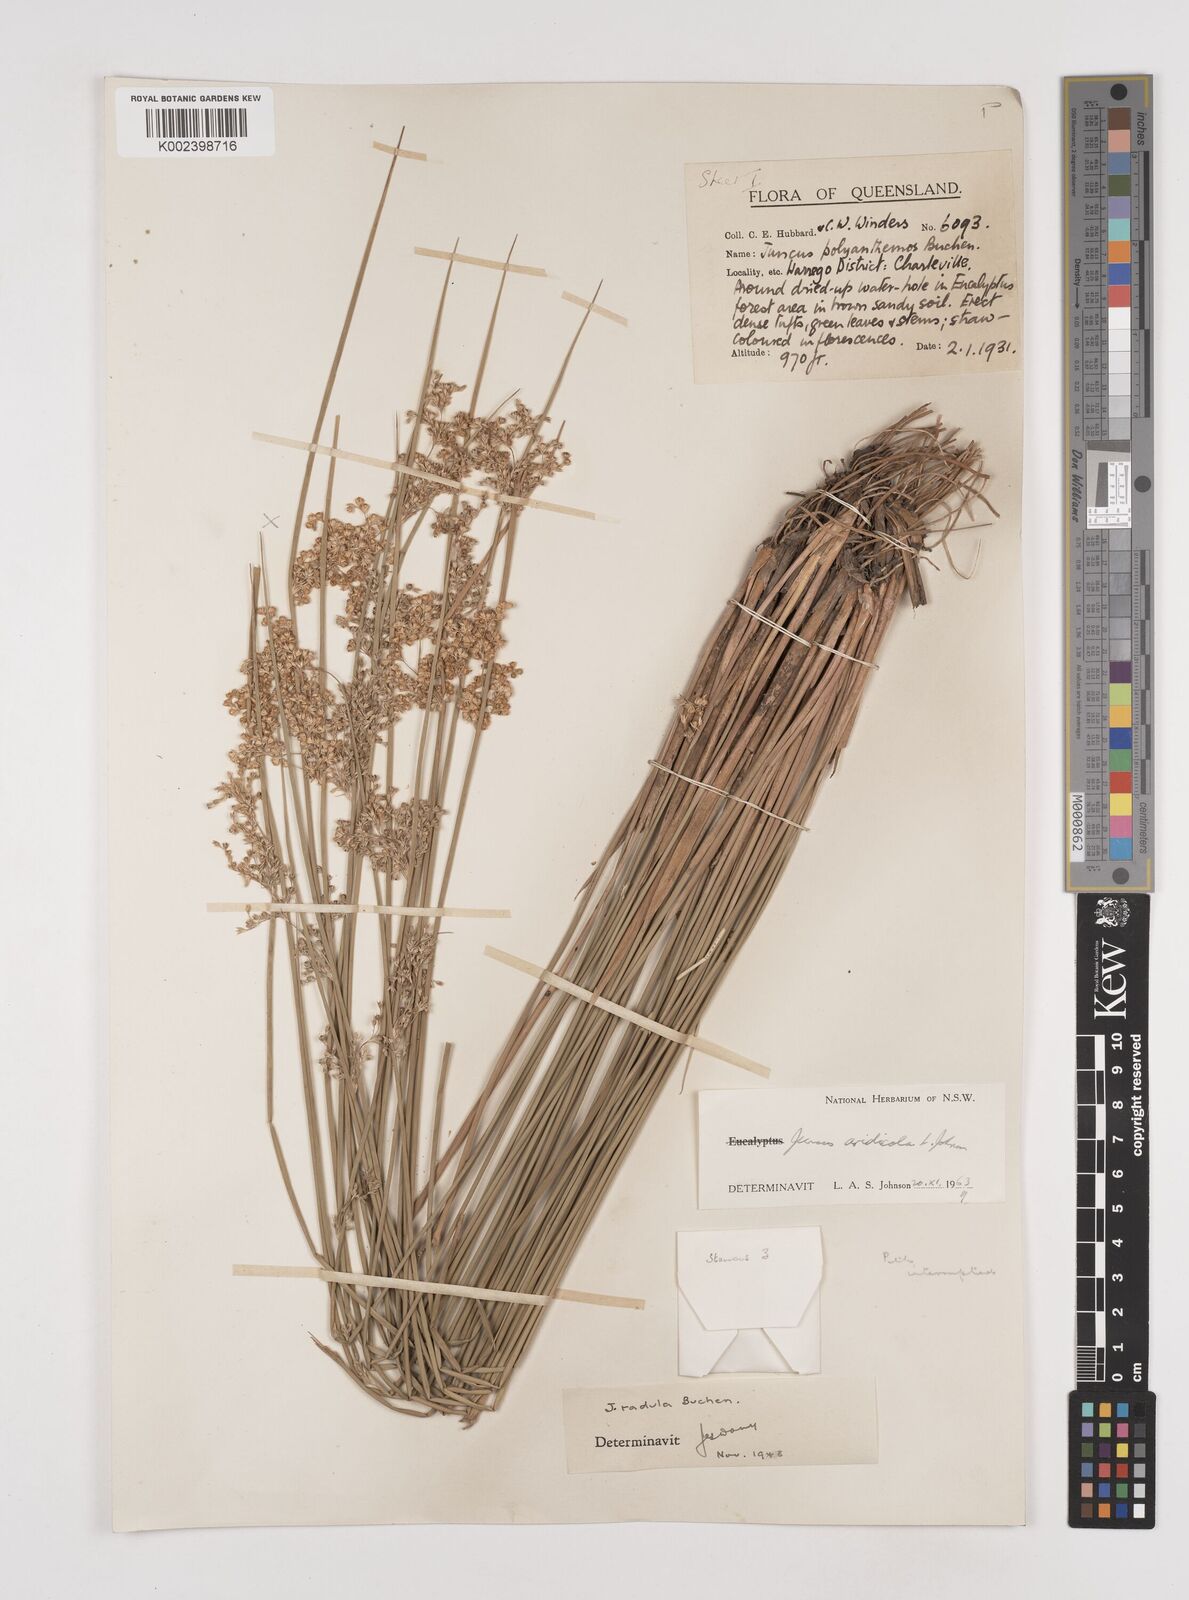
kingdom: Plantae
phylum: Tracheophyta
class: Liliopsida
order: Poales
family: Juncaceae
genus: Juncus
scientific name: Juncus aridicola
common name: Tussock rush
